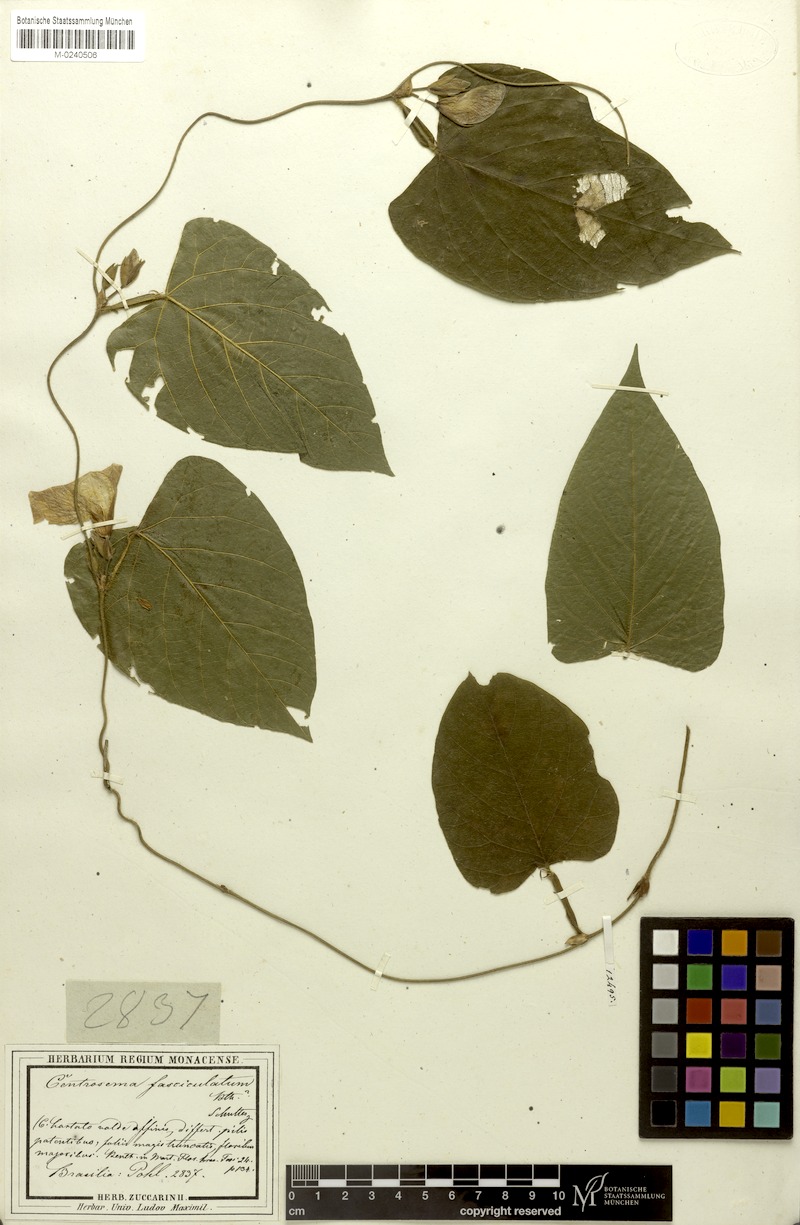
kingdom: Plantae
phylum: Tracheophyta
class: Magnoliopsida
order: Fabales
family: Fabaceae
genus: Centrosema
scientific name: Centrosema fasciculatum
